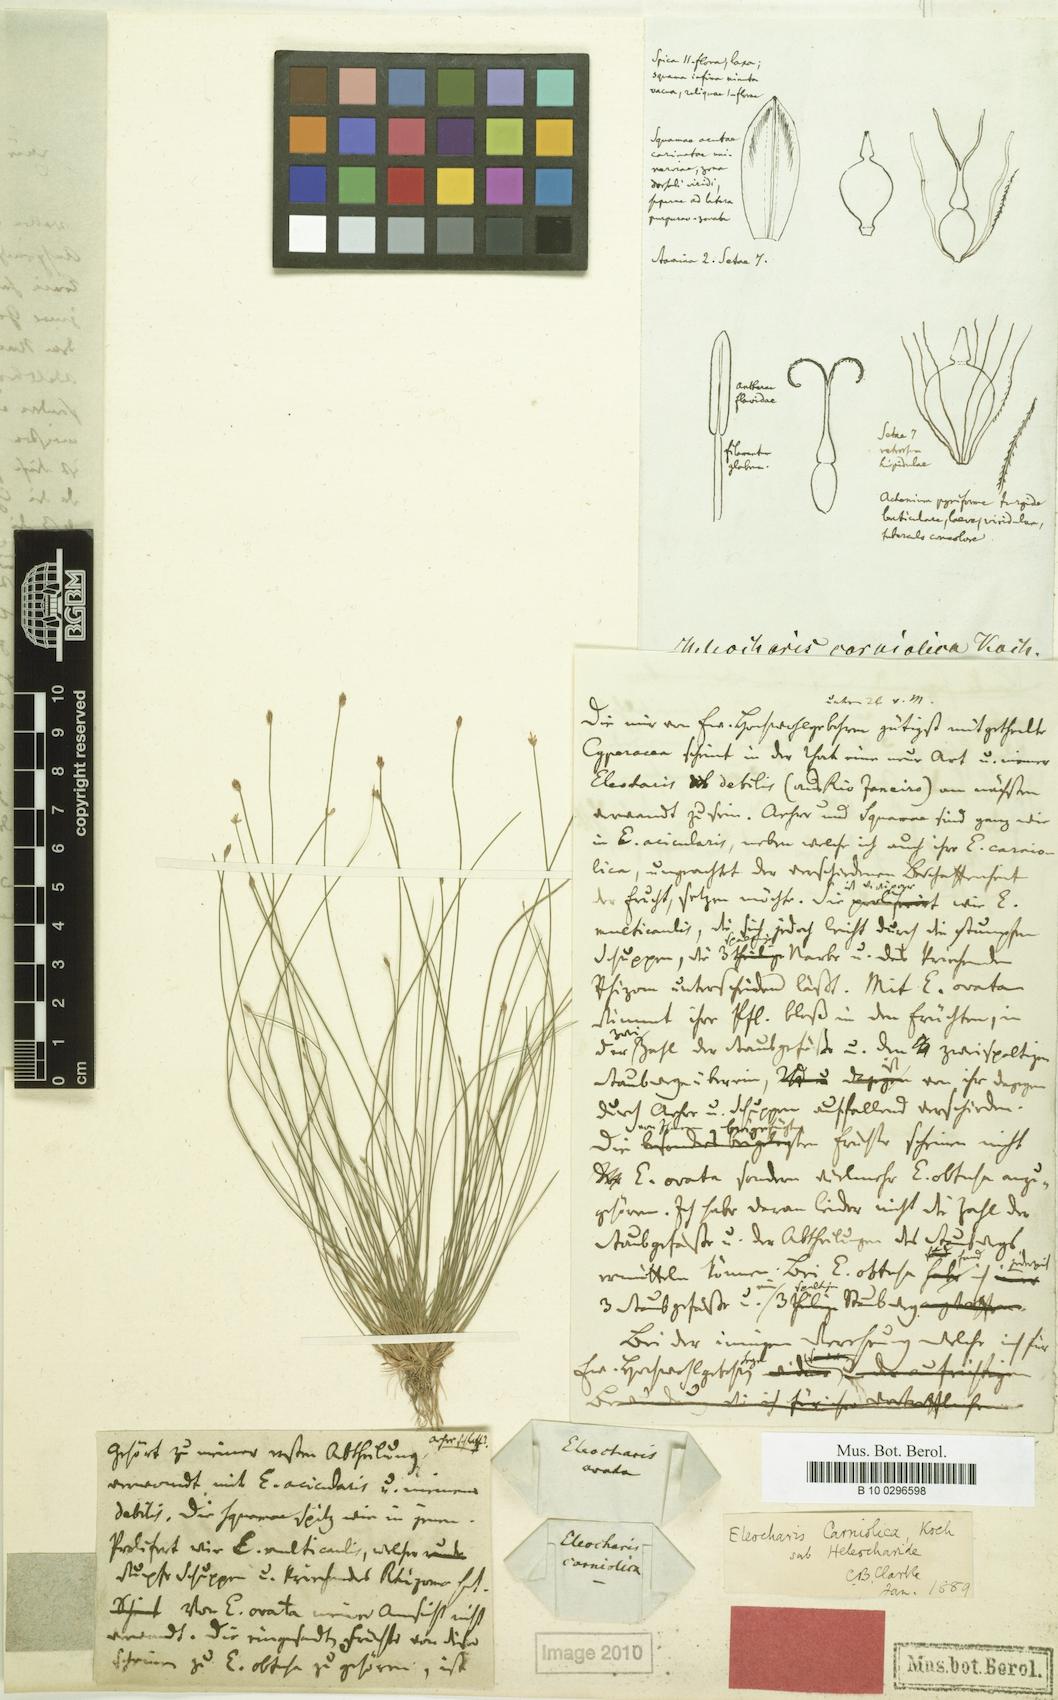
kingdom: Plantae
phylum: Tracheophyta
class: Liliopsida
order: Poales
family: Cyperaceae
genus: Eleocharis
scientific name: Eleocharis carniolica
